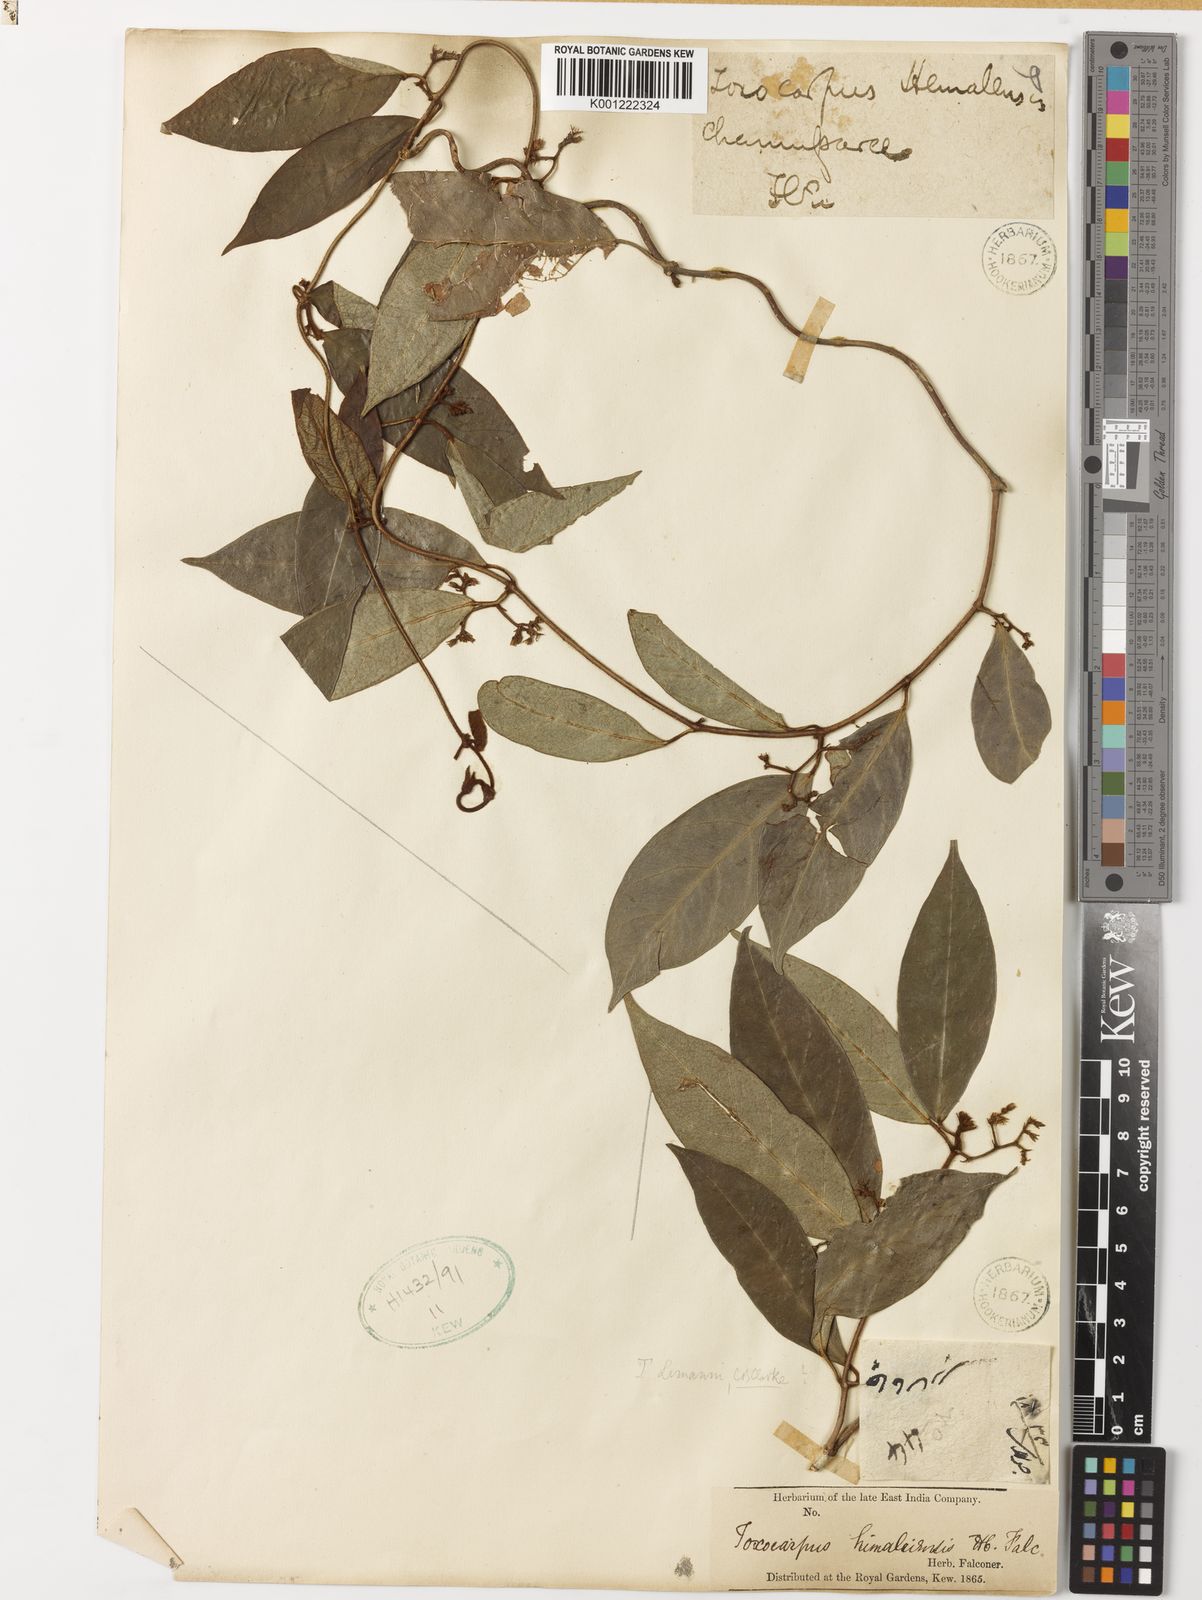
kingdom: Plantae
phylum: Tracheophyta
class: Magnoliopsida
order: Gentianales
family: Apocynaceae
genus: Toxocarpus
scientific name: Toxocarpus himalensis
